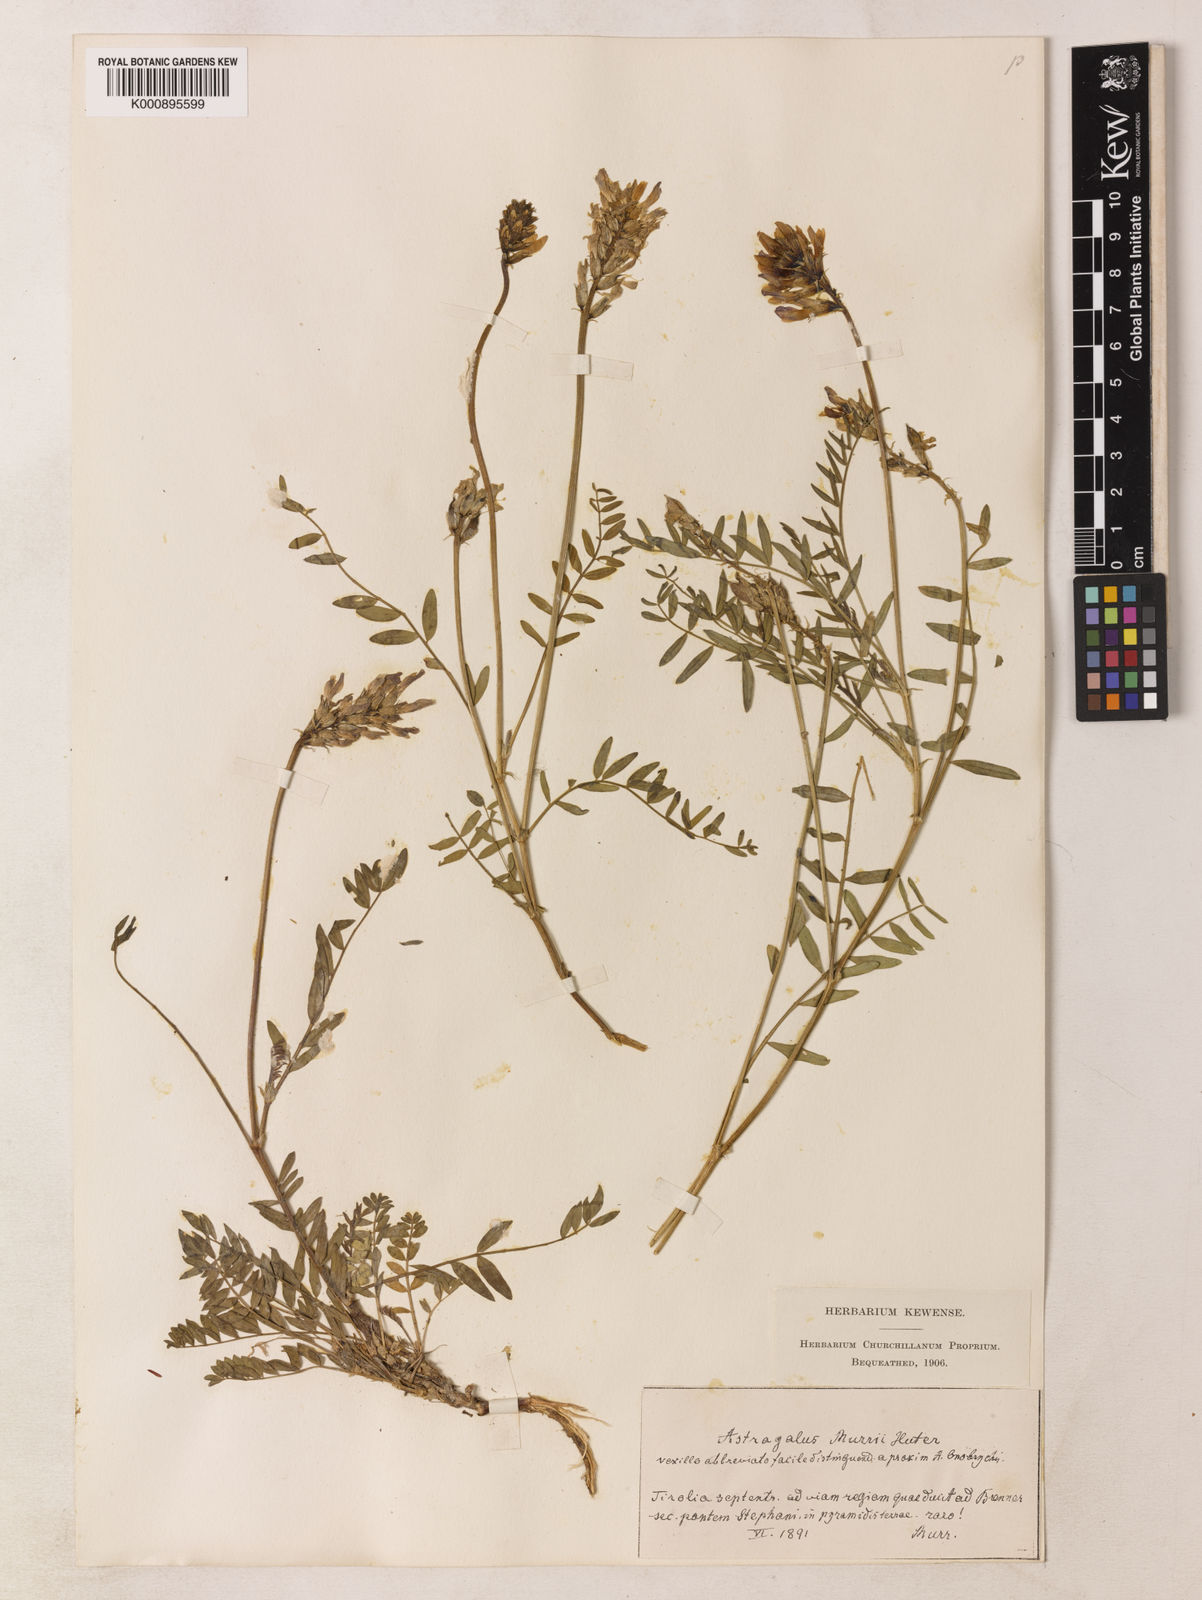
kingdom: Plantae
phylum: Tracheophyta
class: Magnoliopsida
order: Fabales
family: Fabaceae
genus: Astragalus
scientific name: Astragalus leontinus
